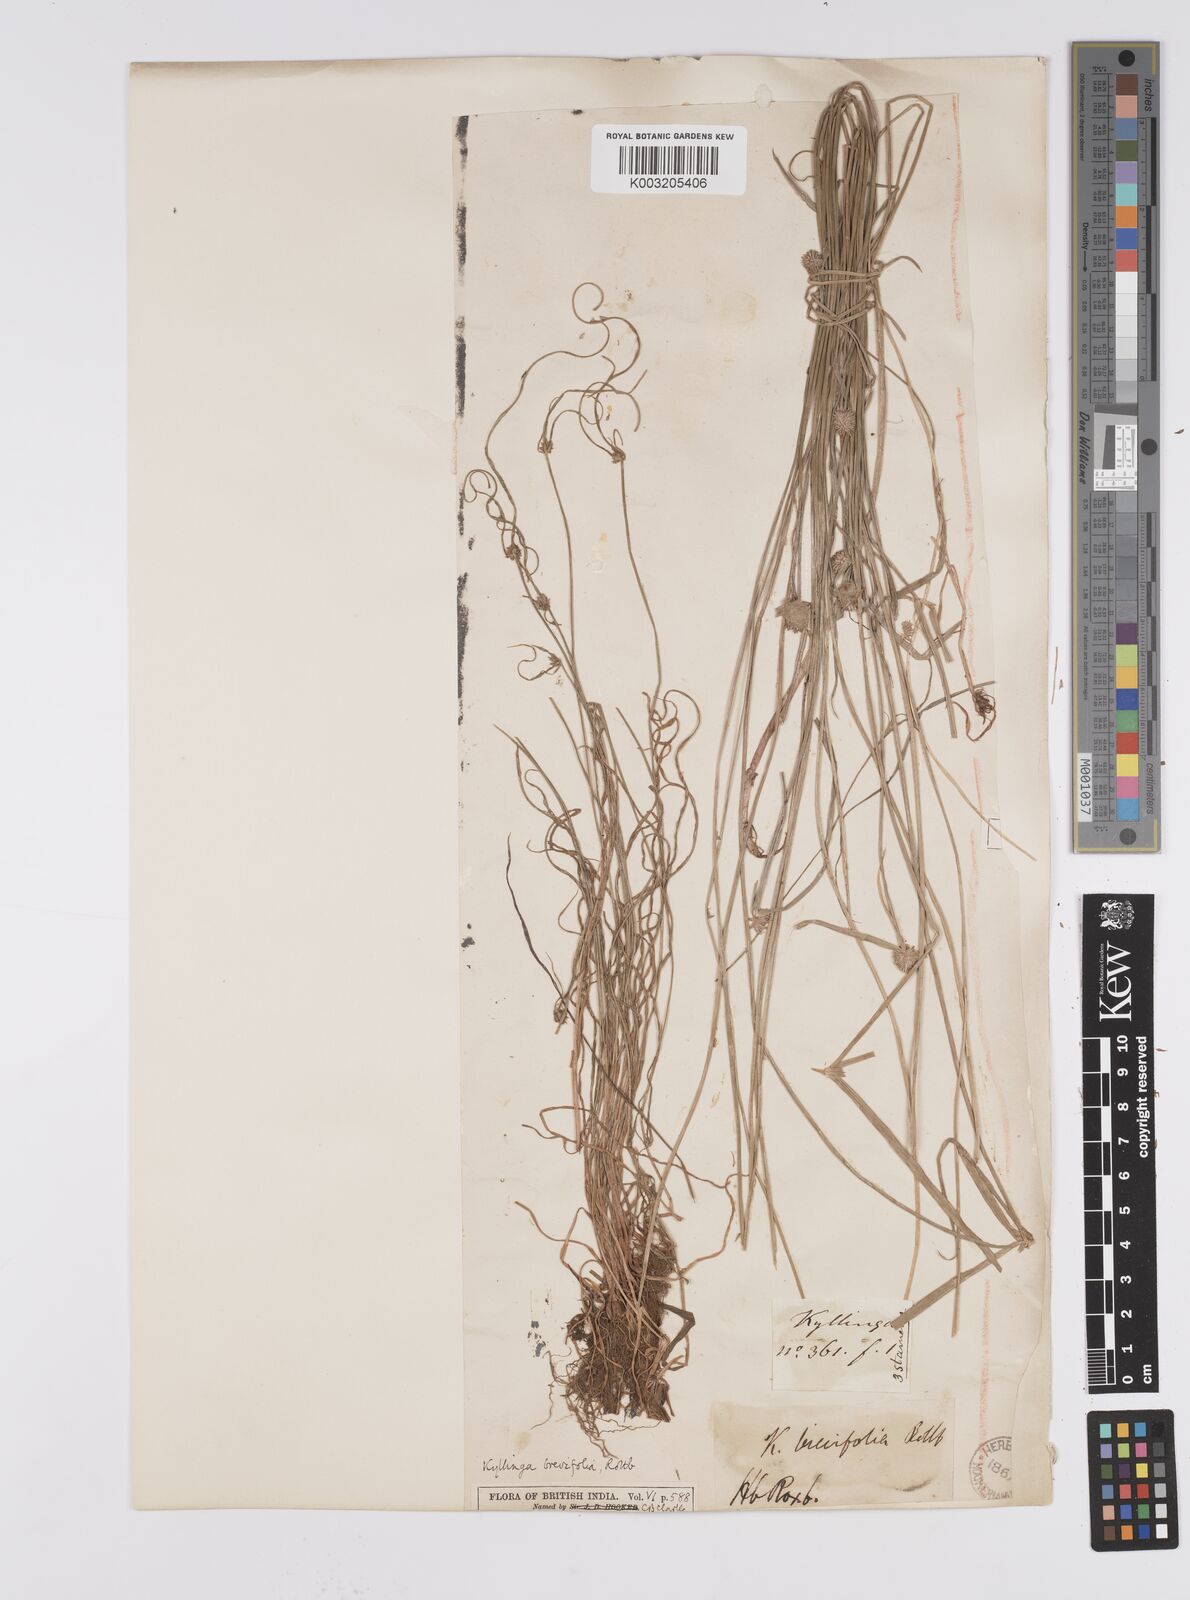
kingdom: Plantae
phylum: Tracheophyta
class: Liliopsida
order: Poales
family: Cyperaceae
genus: Cyperus
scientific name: Cyperus brevifolius
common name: Globe kyllinga
